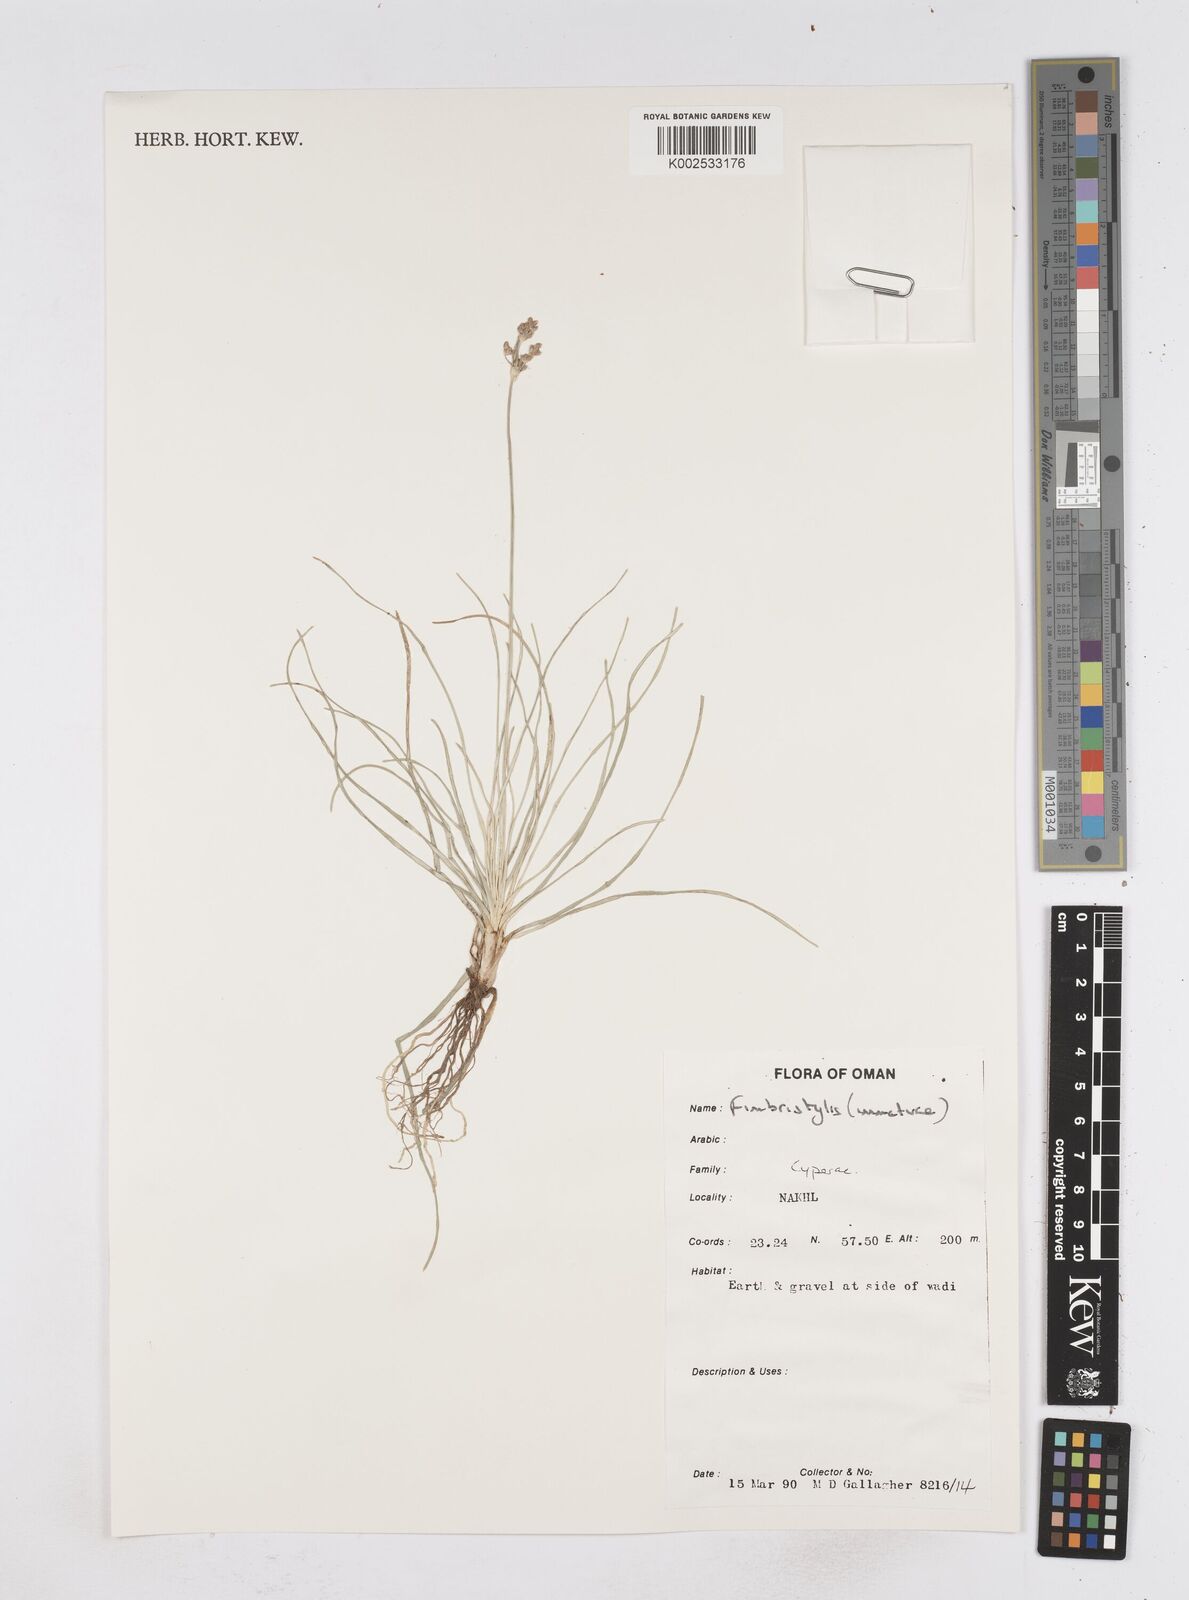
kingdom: Plantae
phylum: Tracheophyta
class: Liliopsida
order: Poales
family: Cyperaceae
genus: Fimbristylis
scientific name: Fimbristylis
